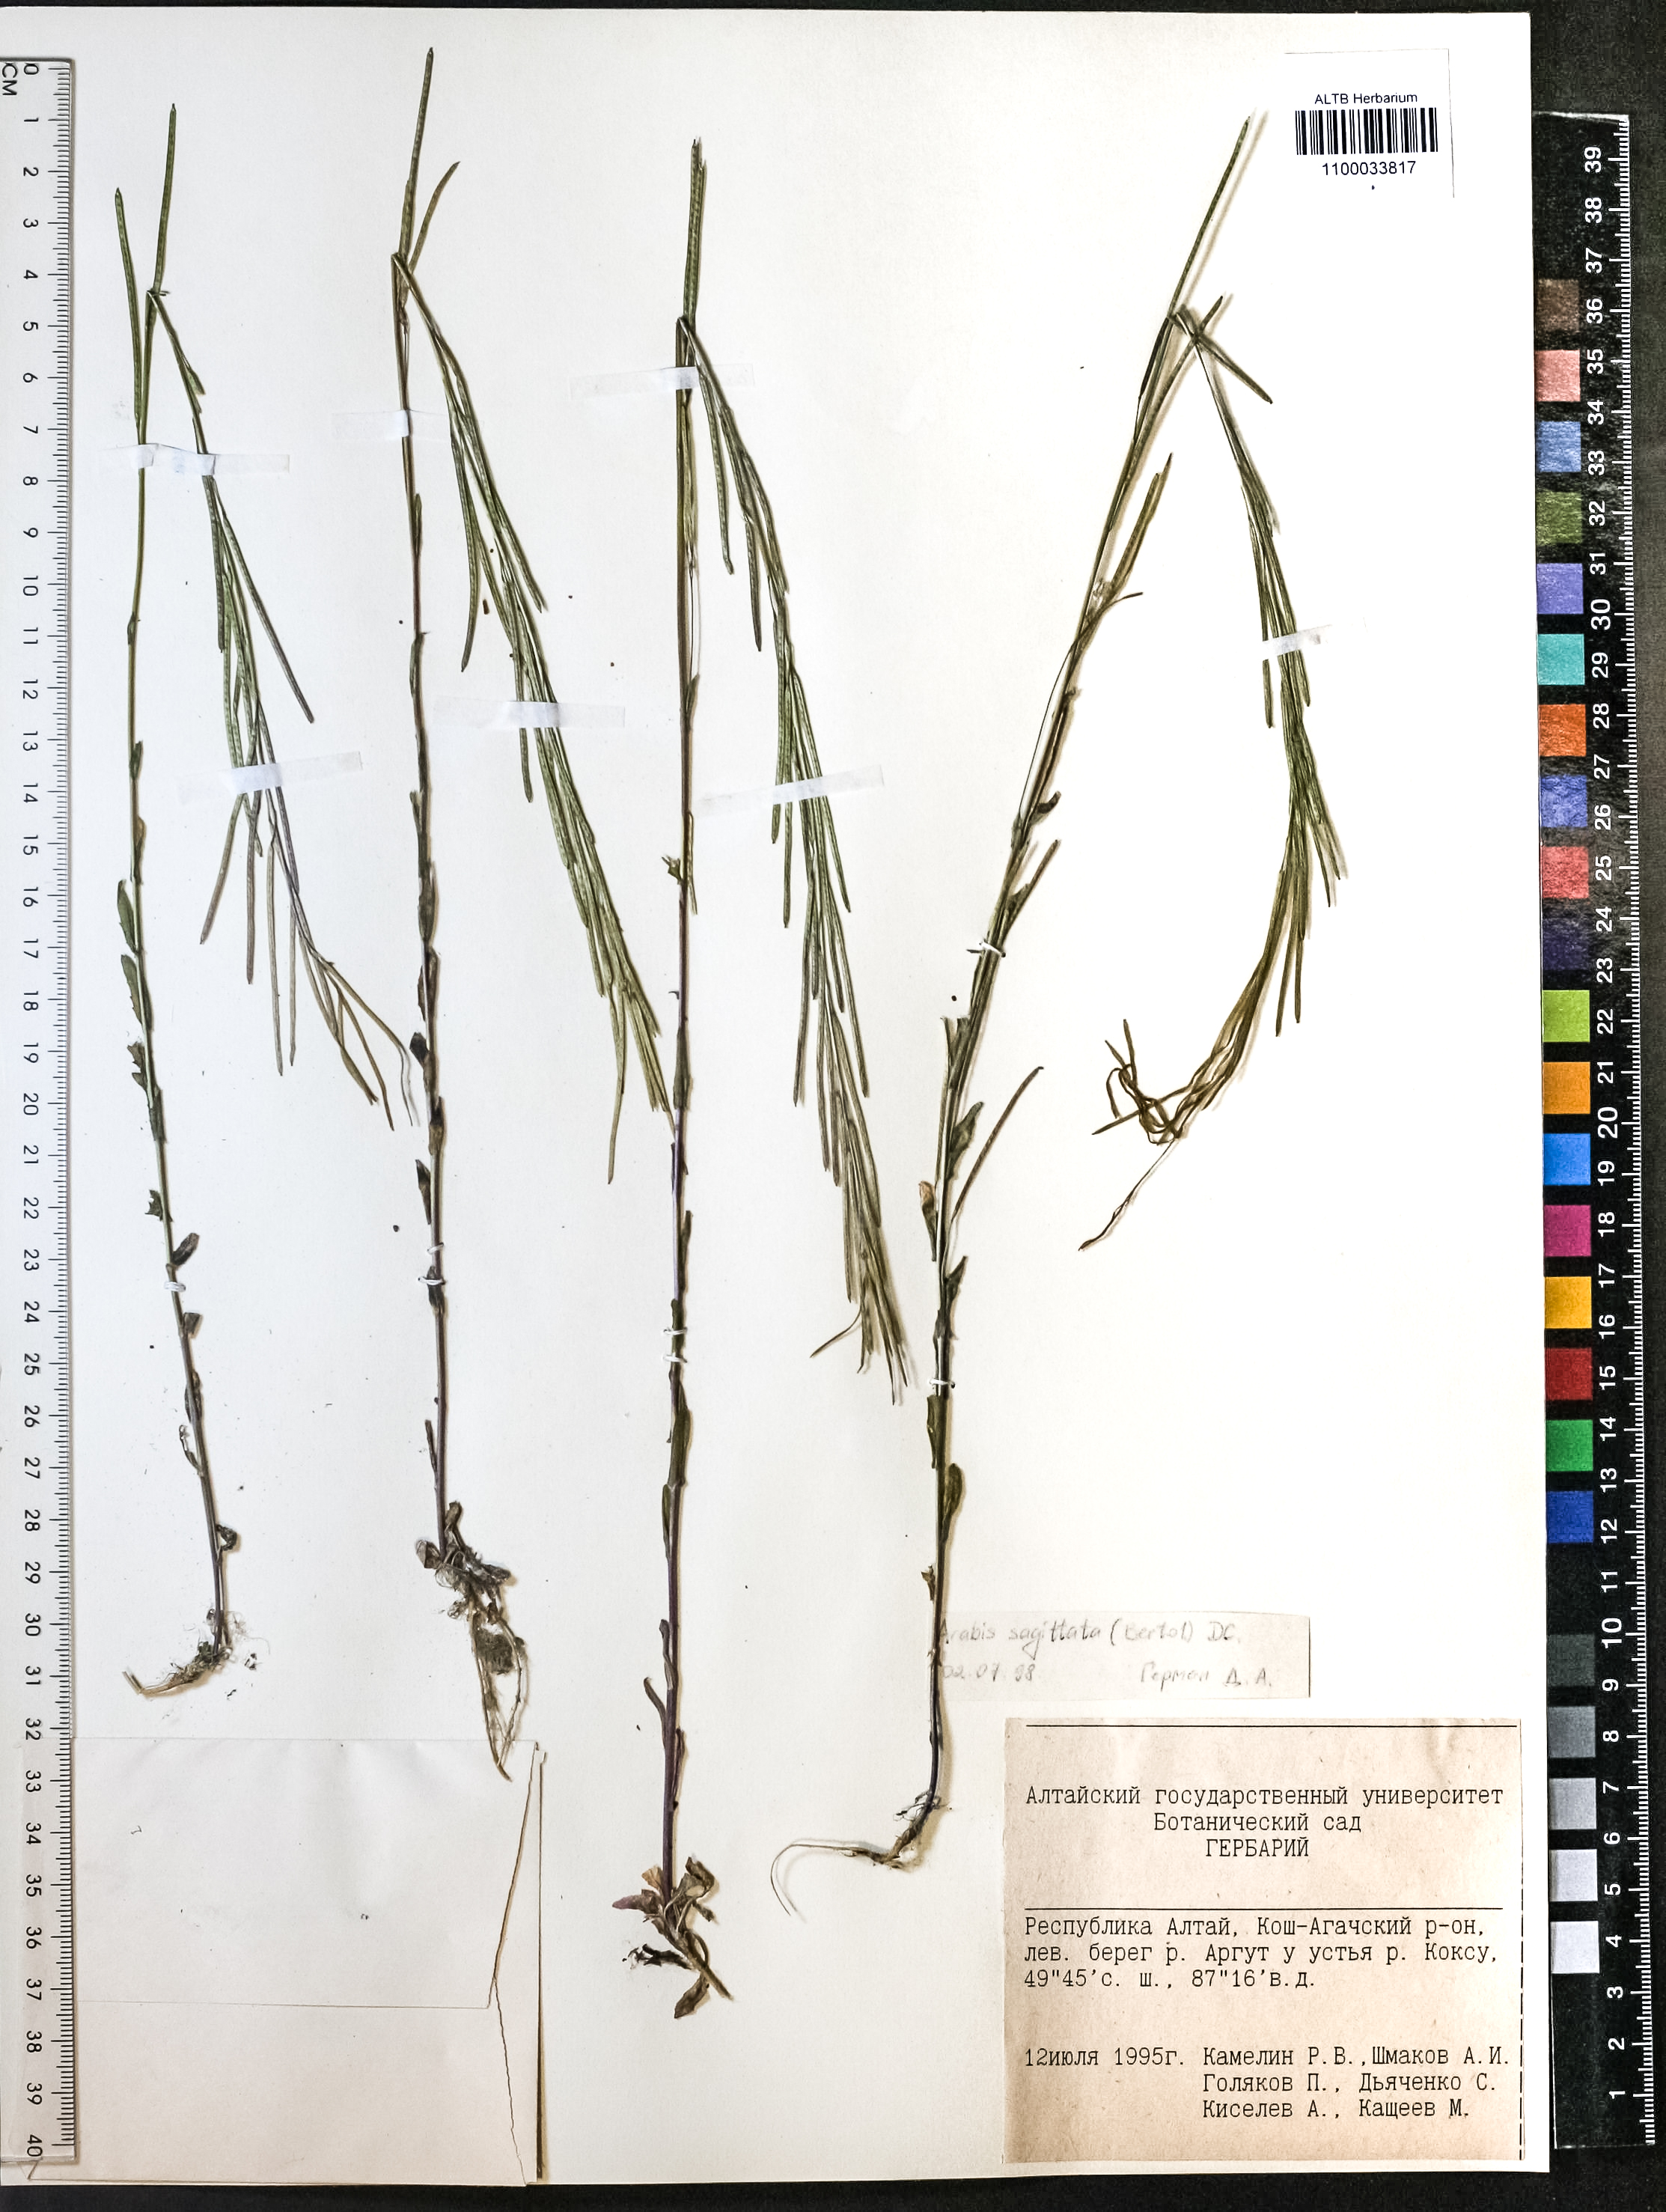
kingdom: Plantae
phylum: Tracheophyta
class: Magnoliopsida
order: Brassicales
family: Brassicaceae
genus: Arabis
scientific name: Arabis sagittata
